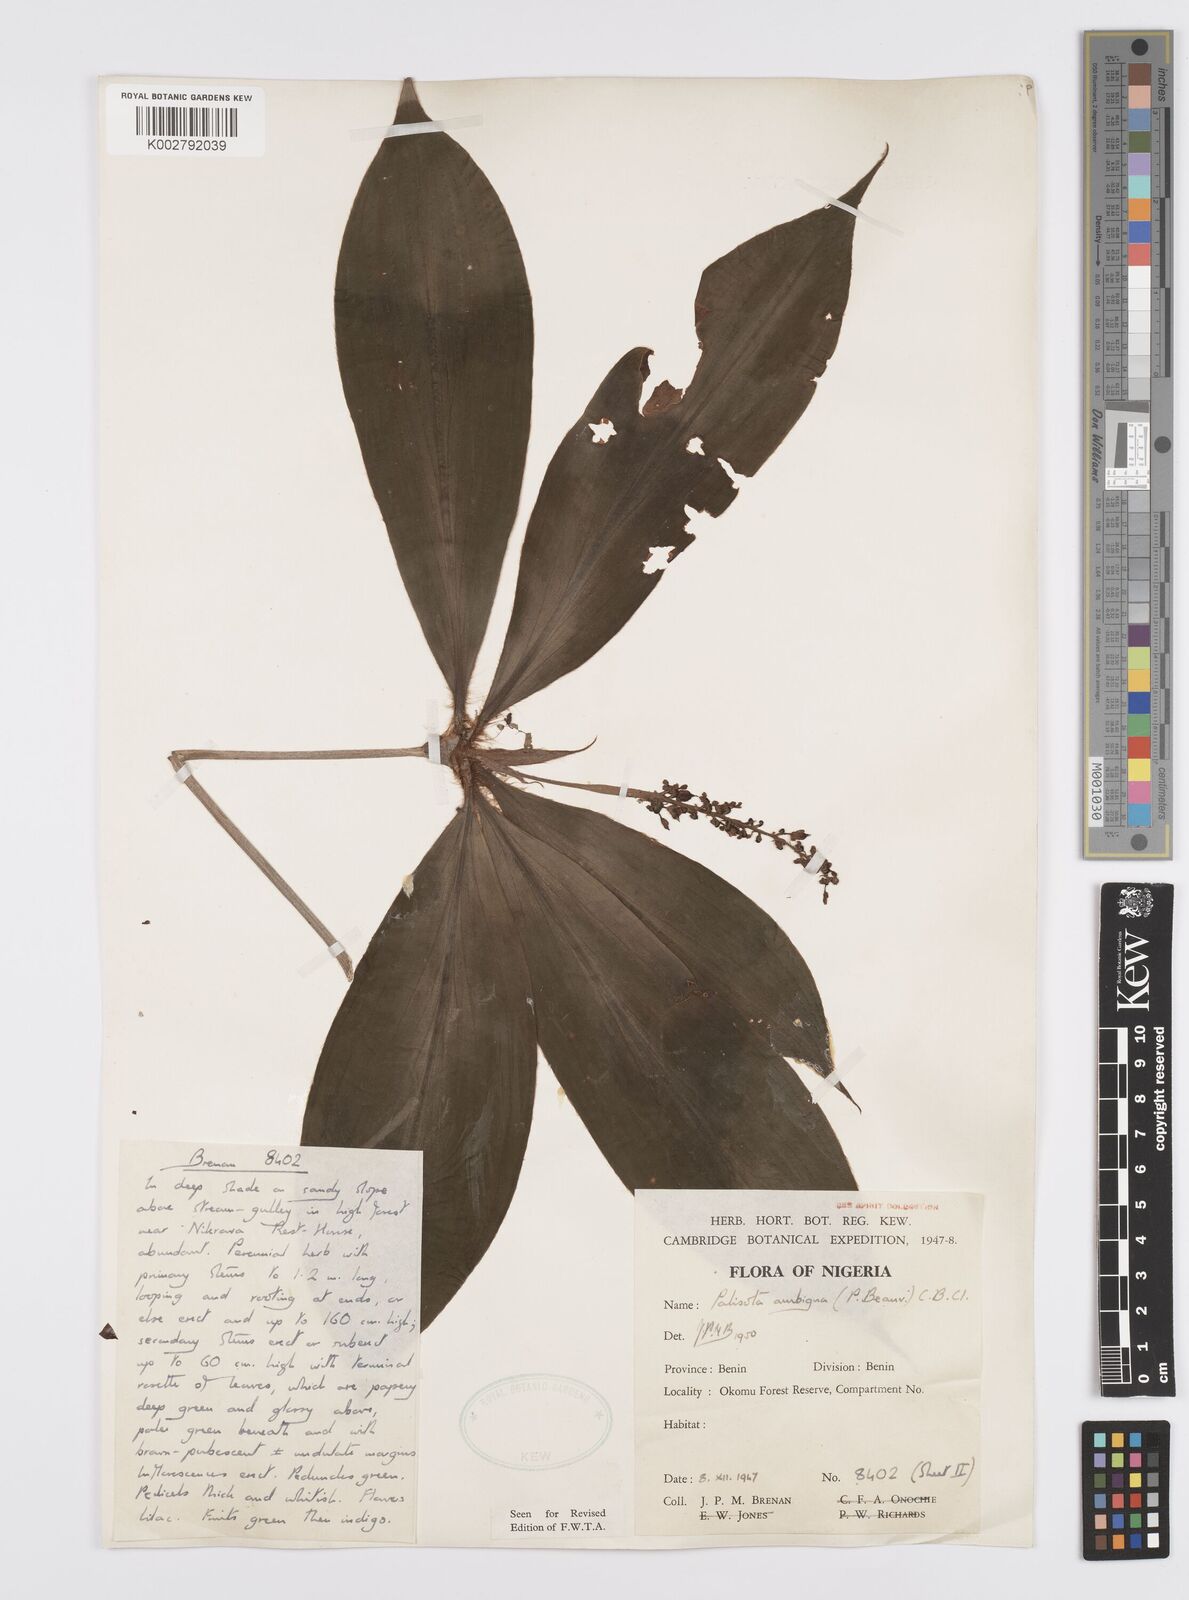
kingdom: Plantae
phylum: Tracheophyta
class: Liliopsida
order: Commelinales
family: Commelinaceae
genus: Palisota
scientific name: Palisota ambigua
